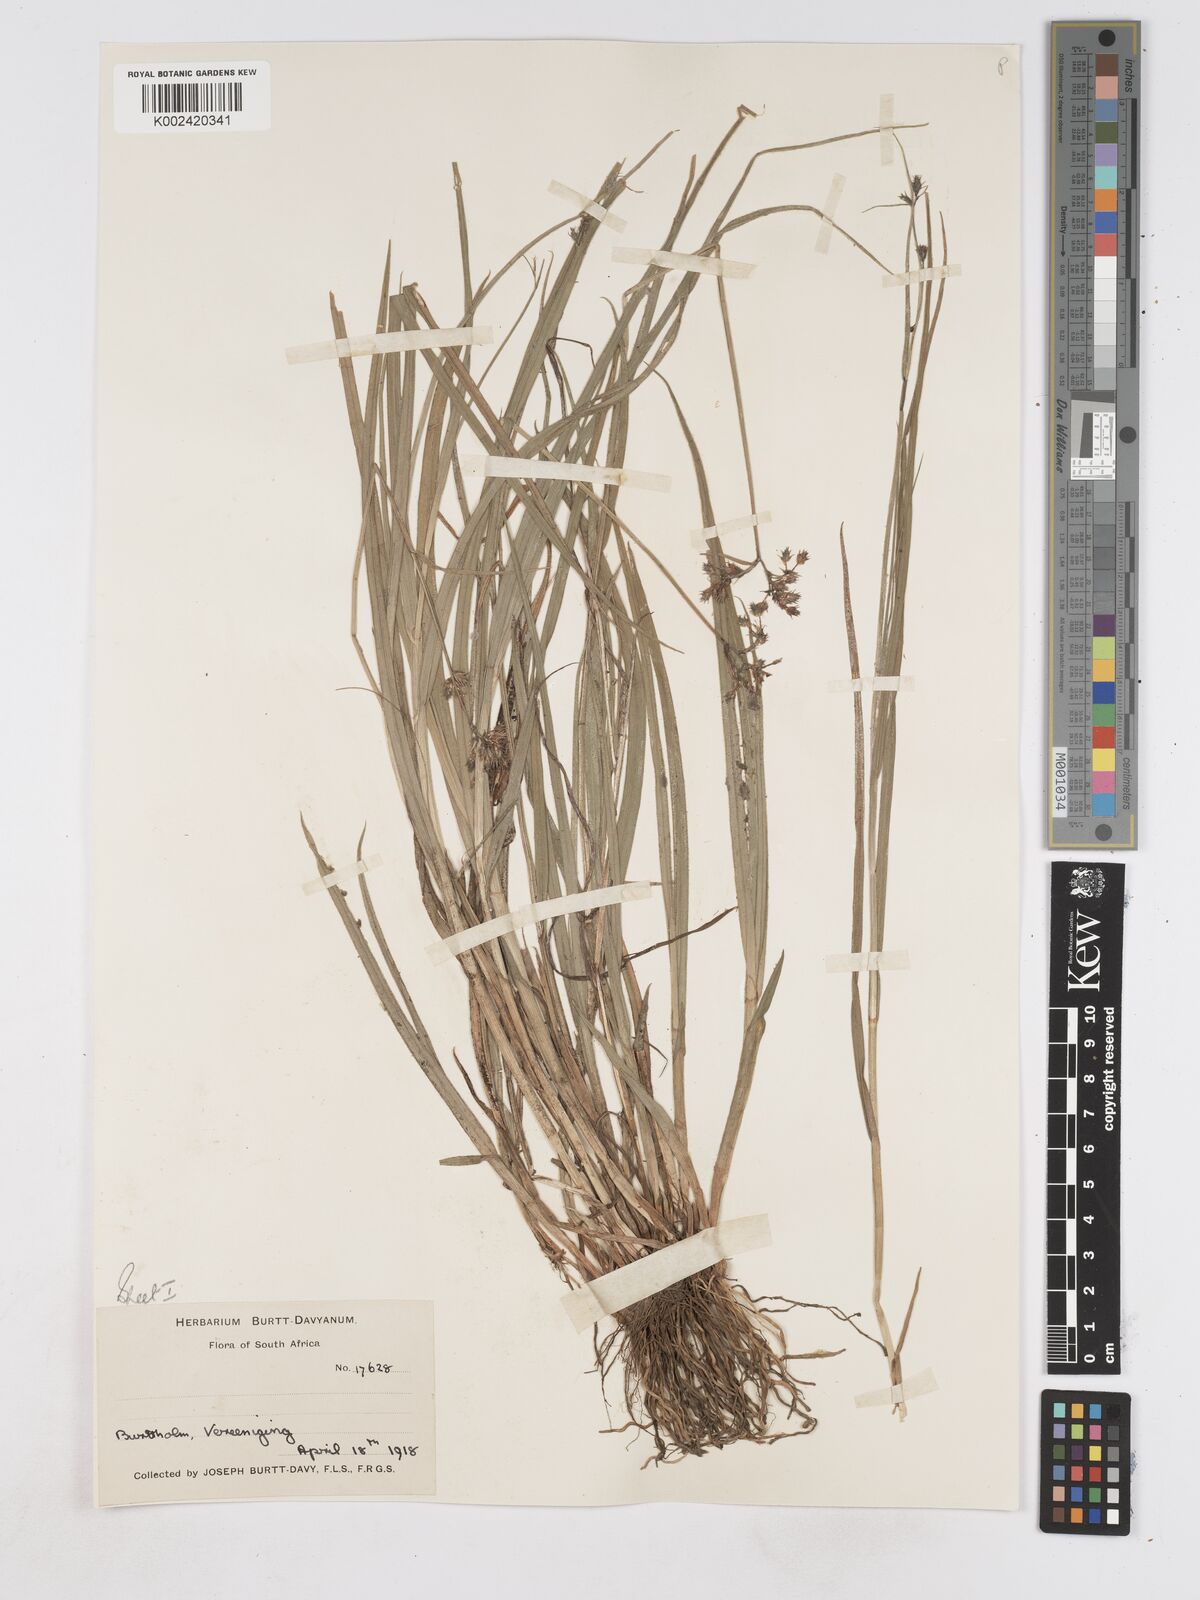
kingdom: Plantae
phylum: Tracheophyta
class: Liliopsida
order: Poales
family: Cyperaceae
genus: Fuirena
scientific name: Fuirena
